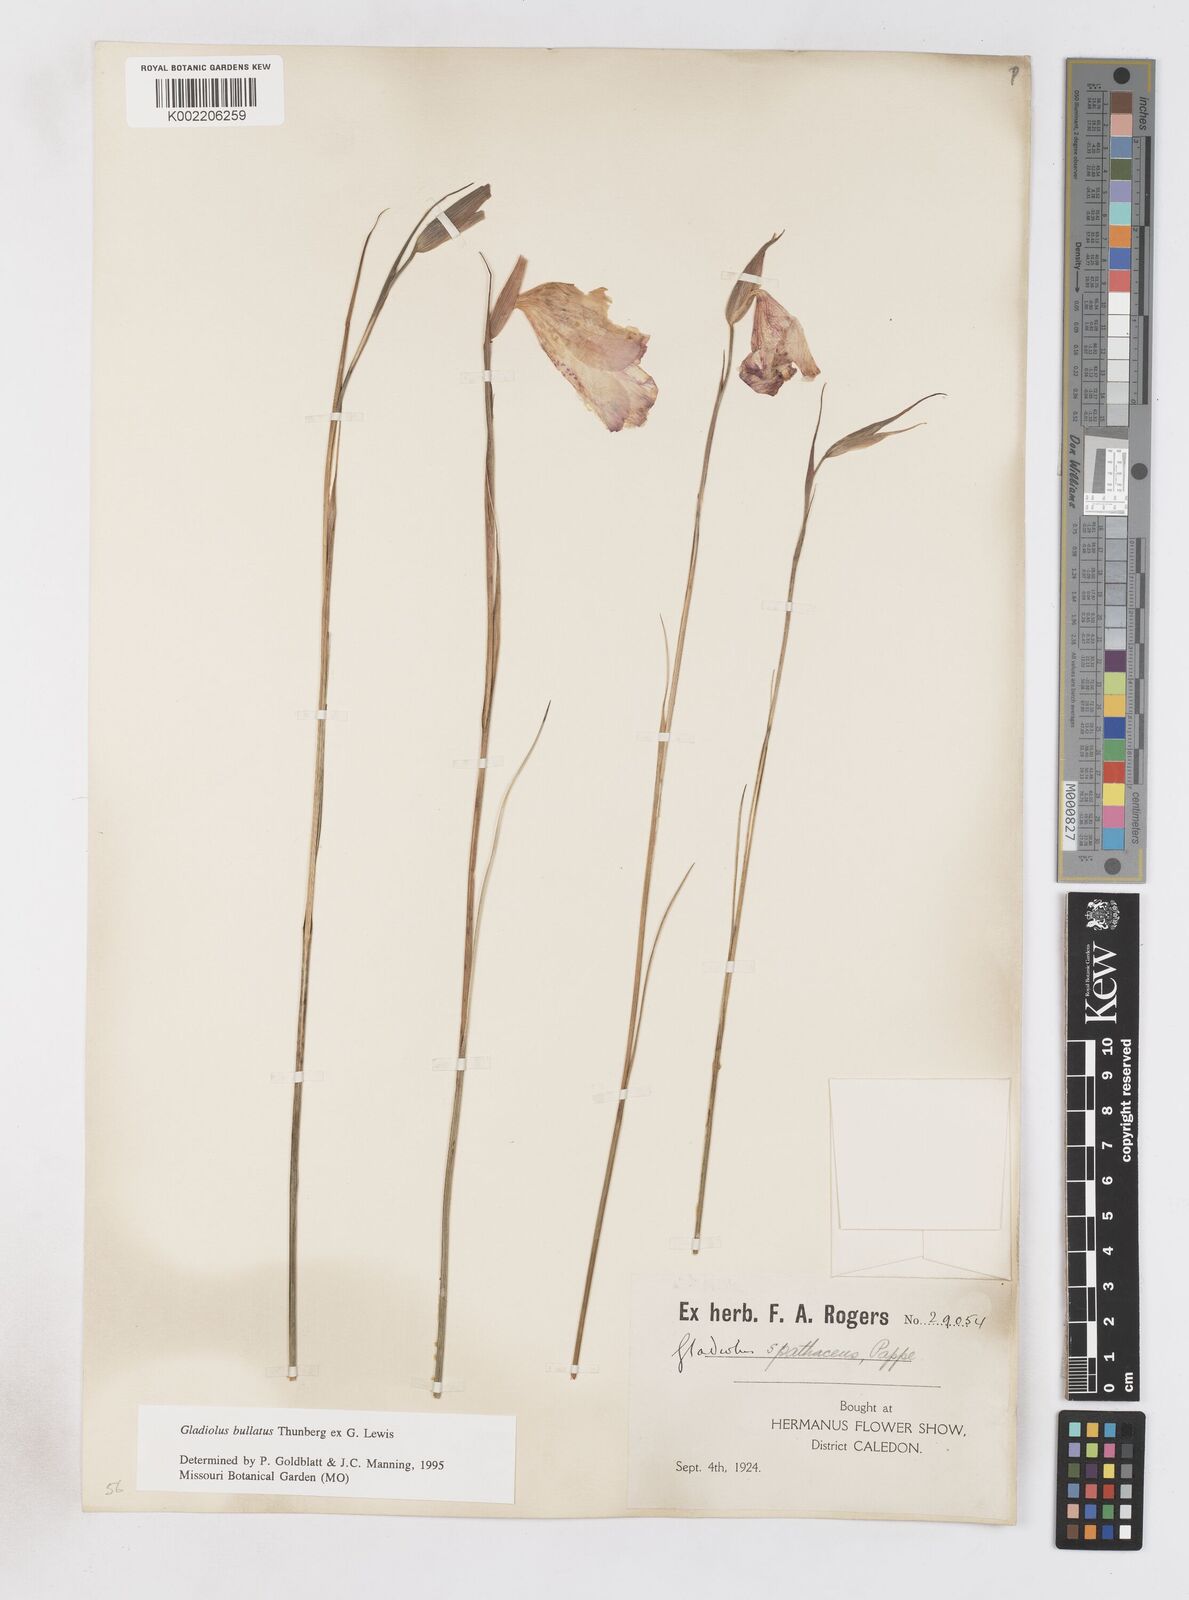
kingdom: Plantae
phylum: Tracheophyta
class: Liliopsida
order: Asparagales
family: Iridaceae
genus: Gladiolus
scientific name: Gladiolus bullatus
